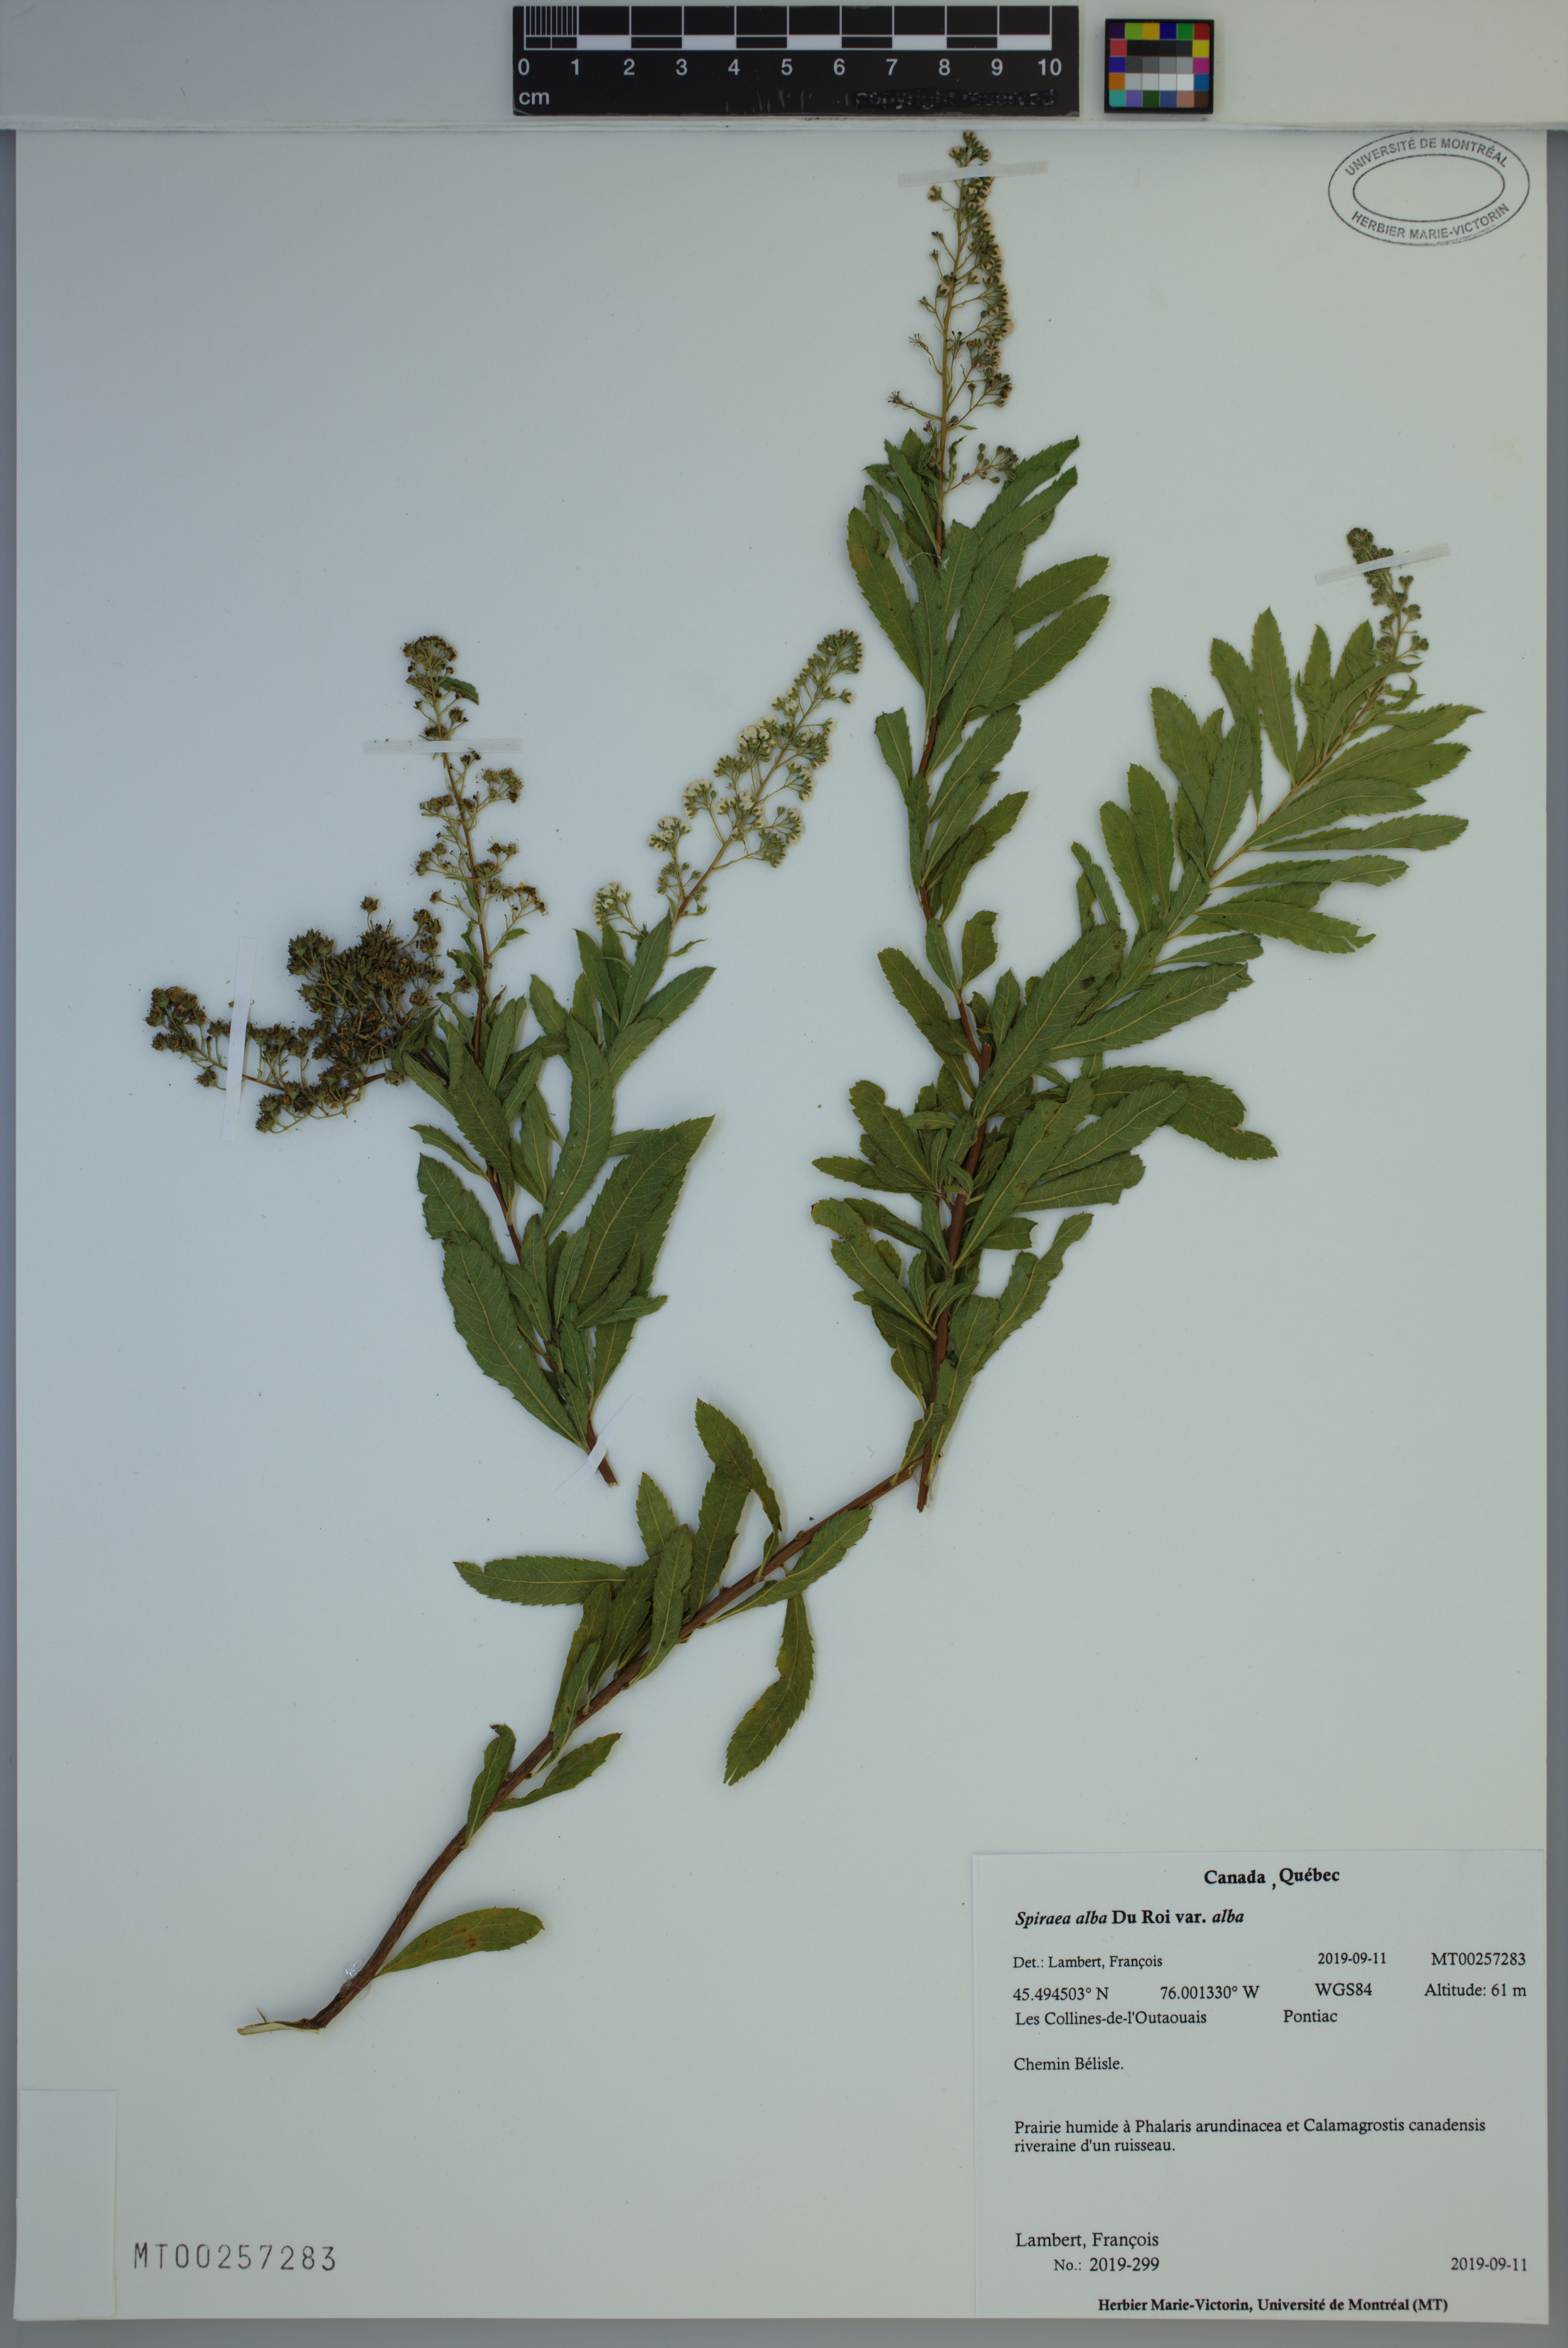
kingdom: Plantae
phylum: Tracheophyta
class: Magnoliopsida
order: Rosales
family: Rosaceae
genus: Spiraea
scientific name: Spiraea alba
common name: Pale bridewort
